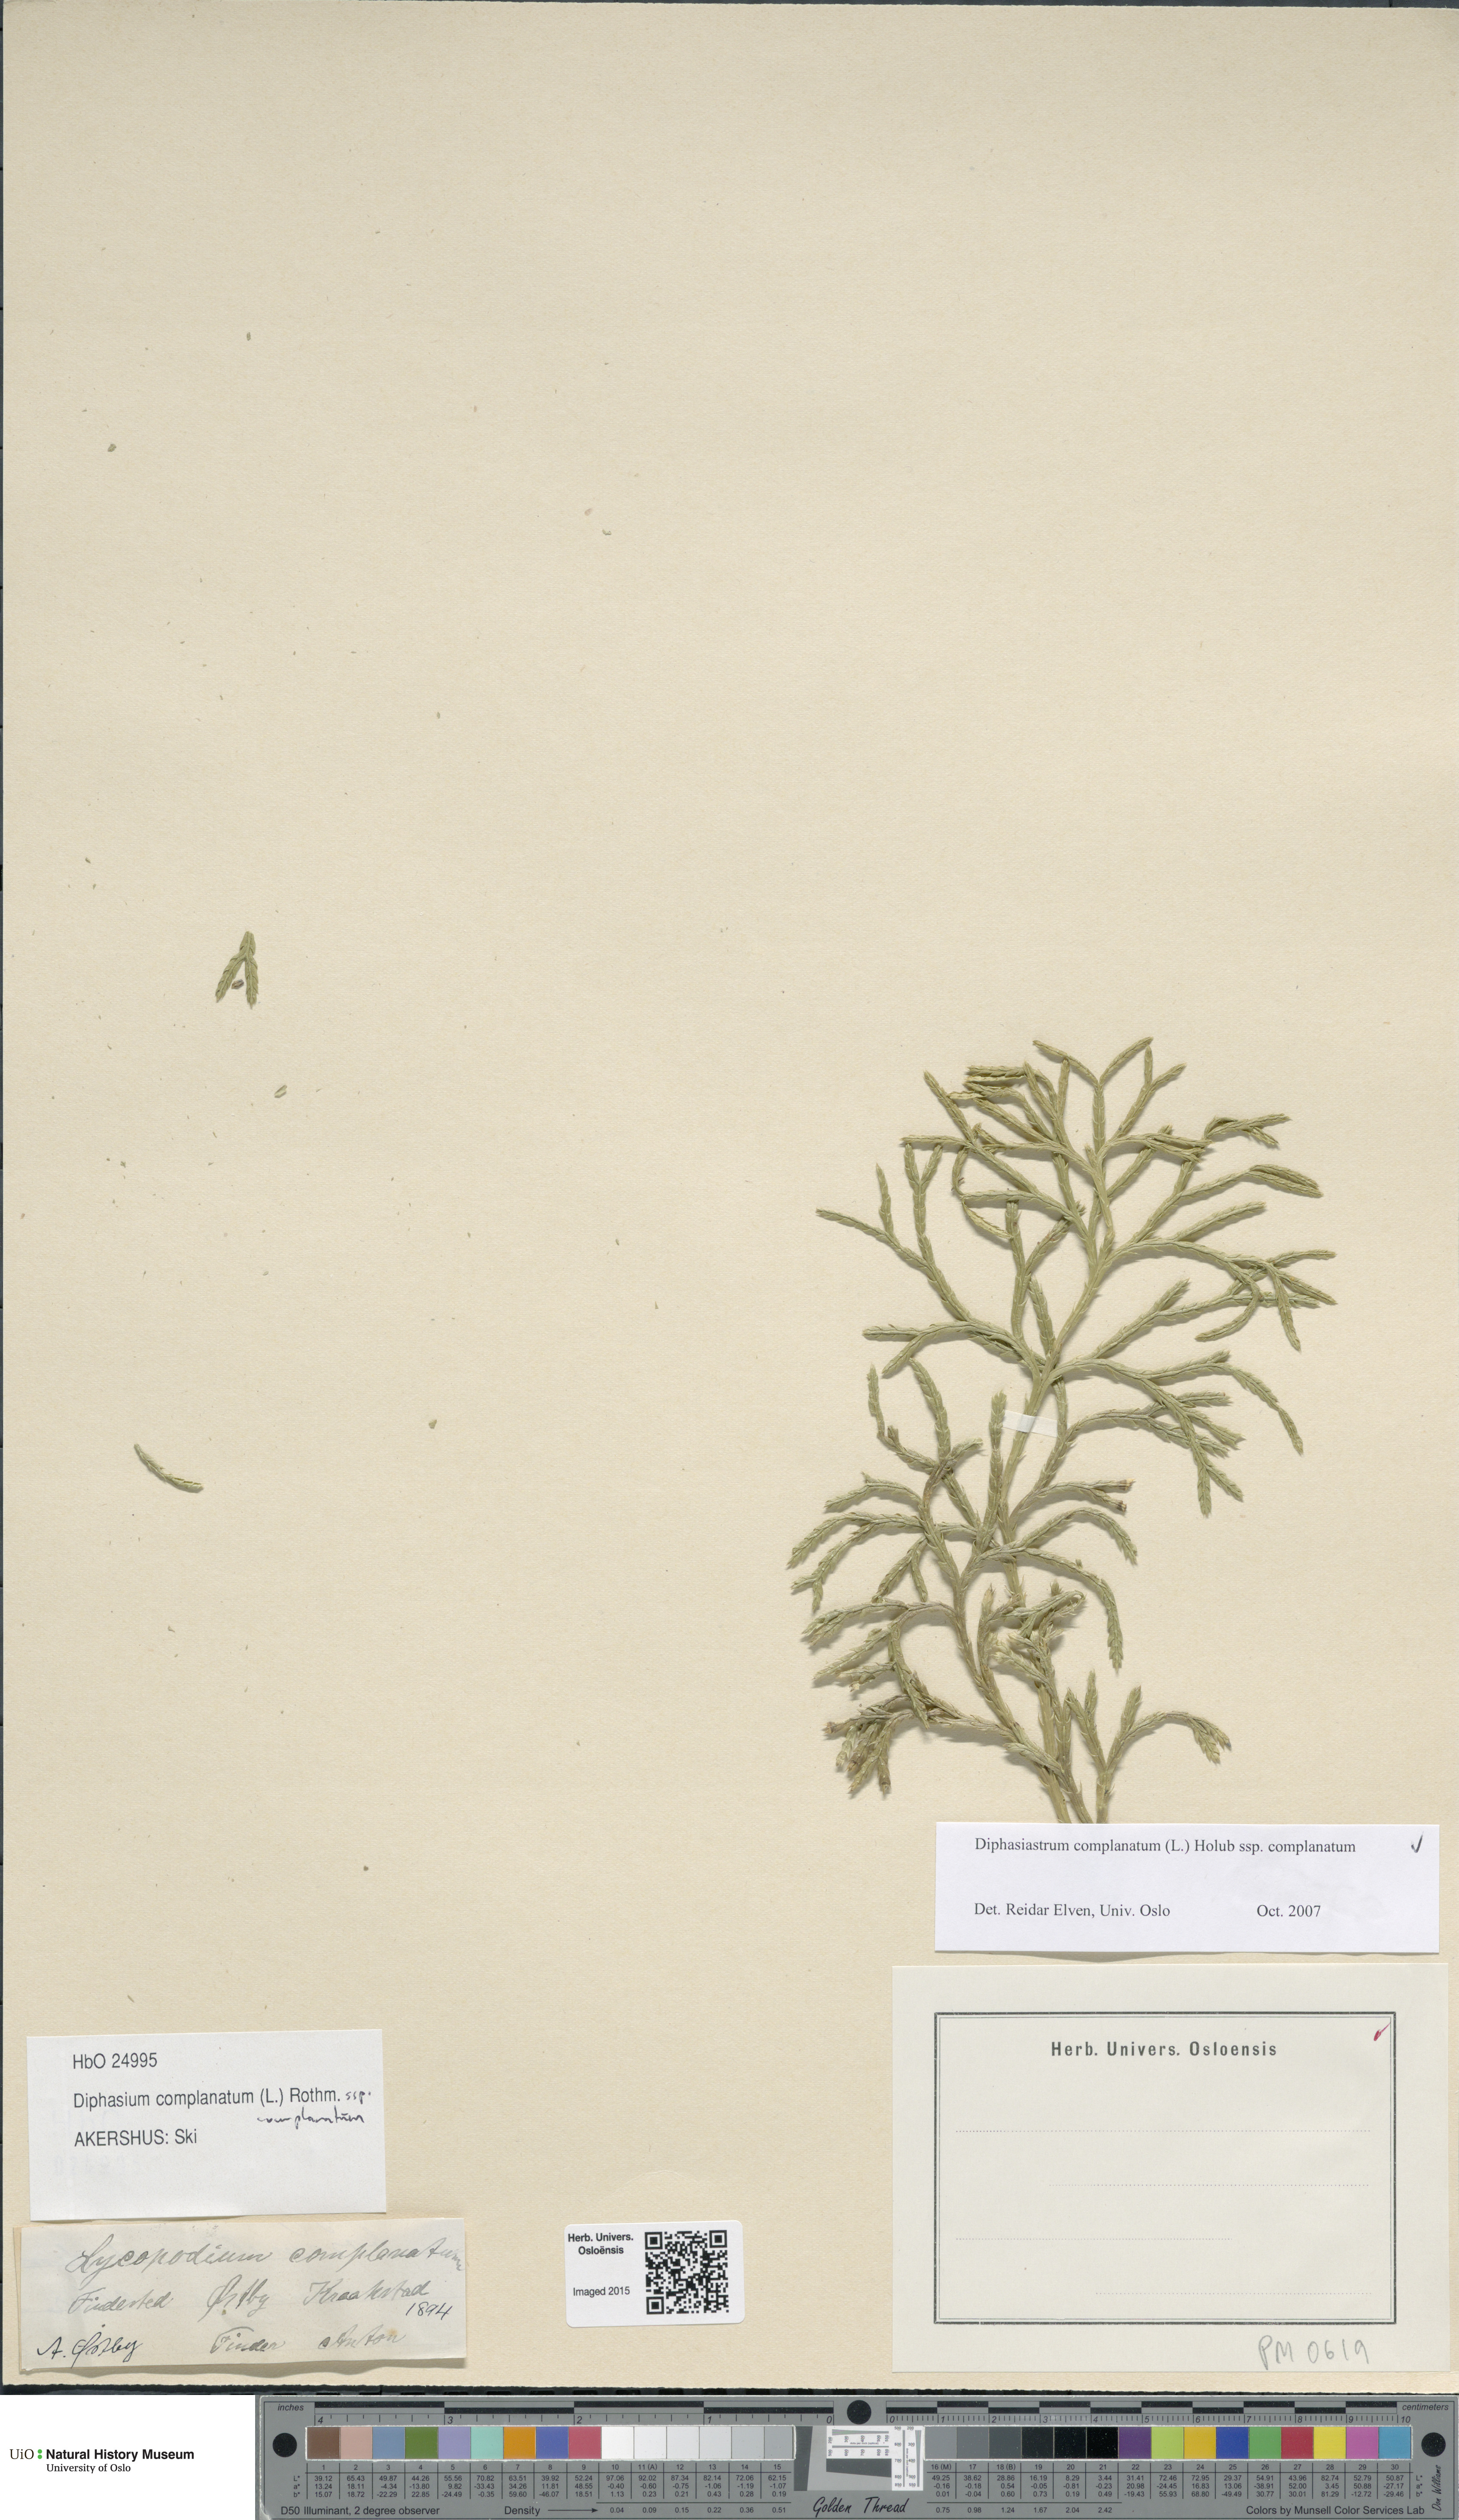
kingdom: Plantae
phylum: Tracheophyta
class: Lycopodiopsida
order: Lycopodiales
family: Lycopodiaceae
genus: Diphasiastrum
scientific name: Diphasiastrum complanatum
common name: Northern running-pine
